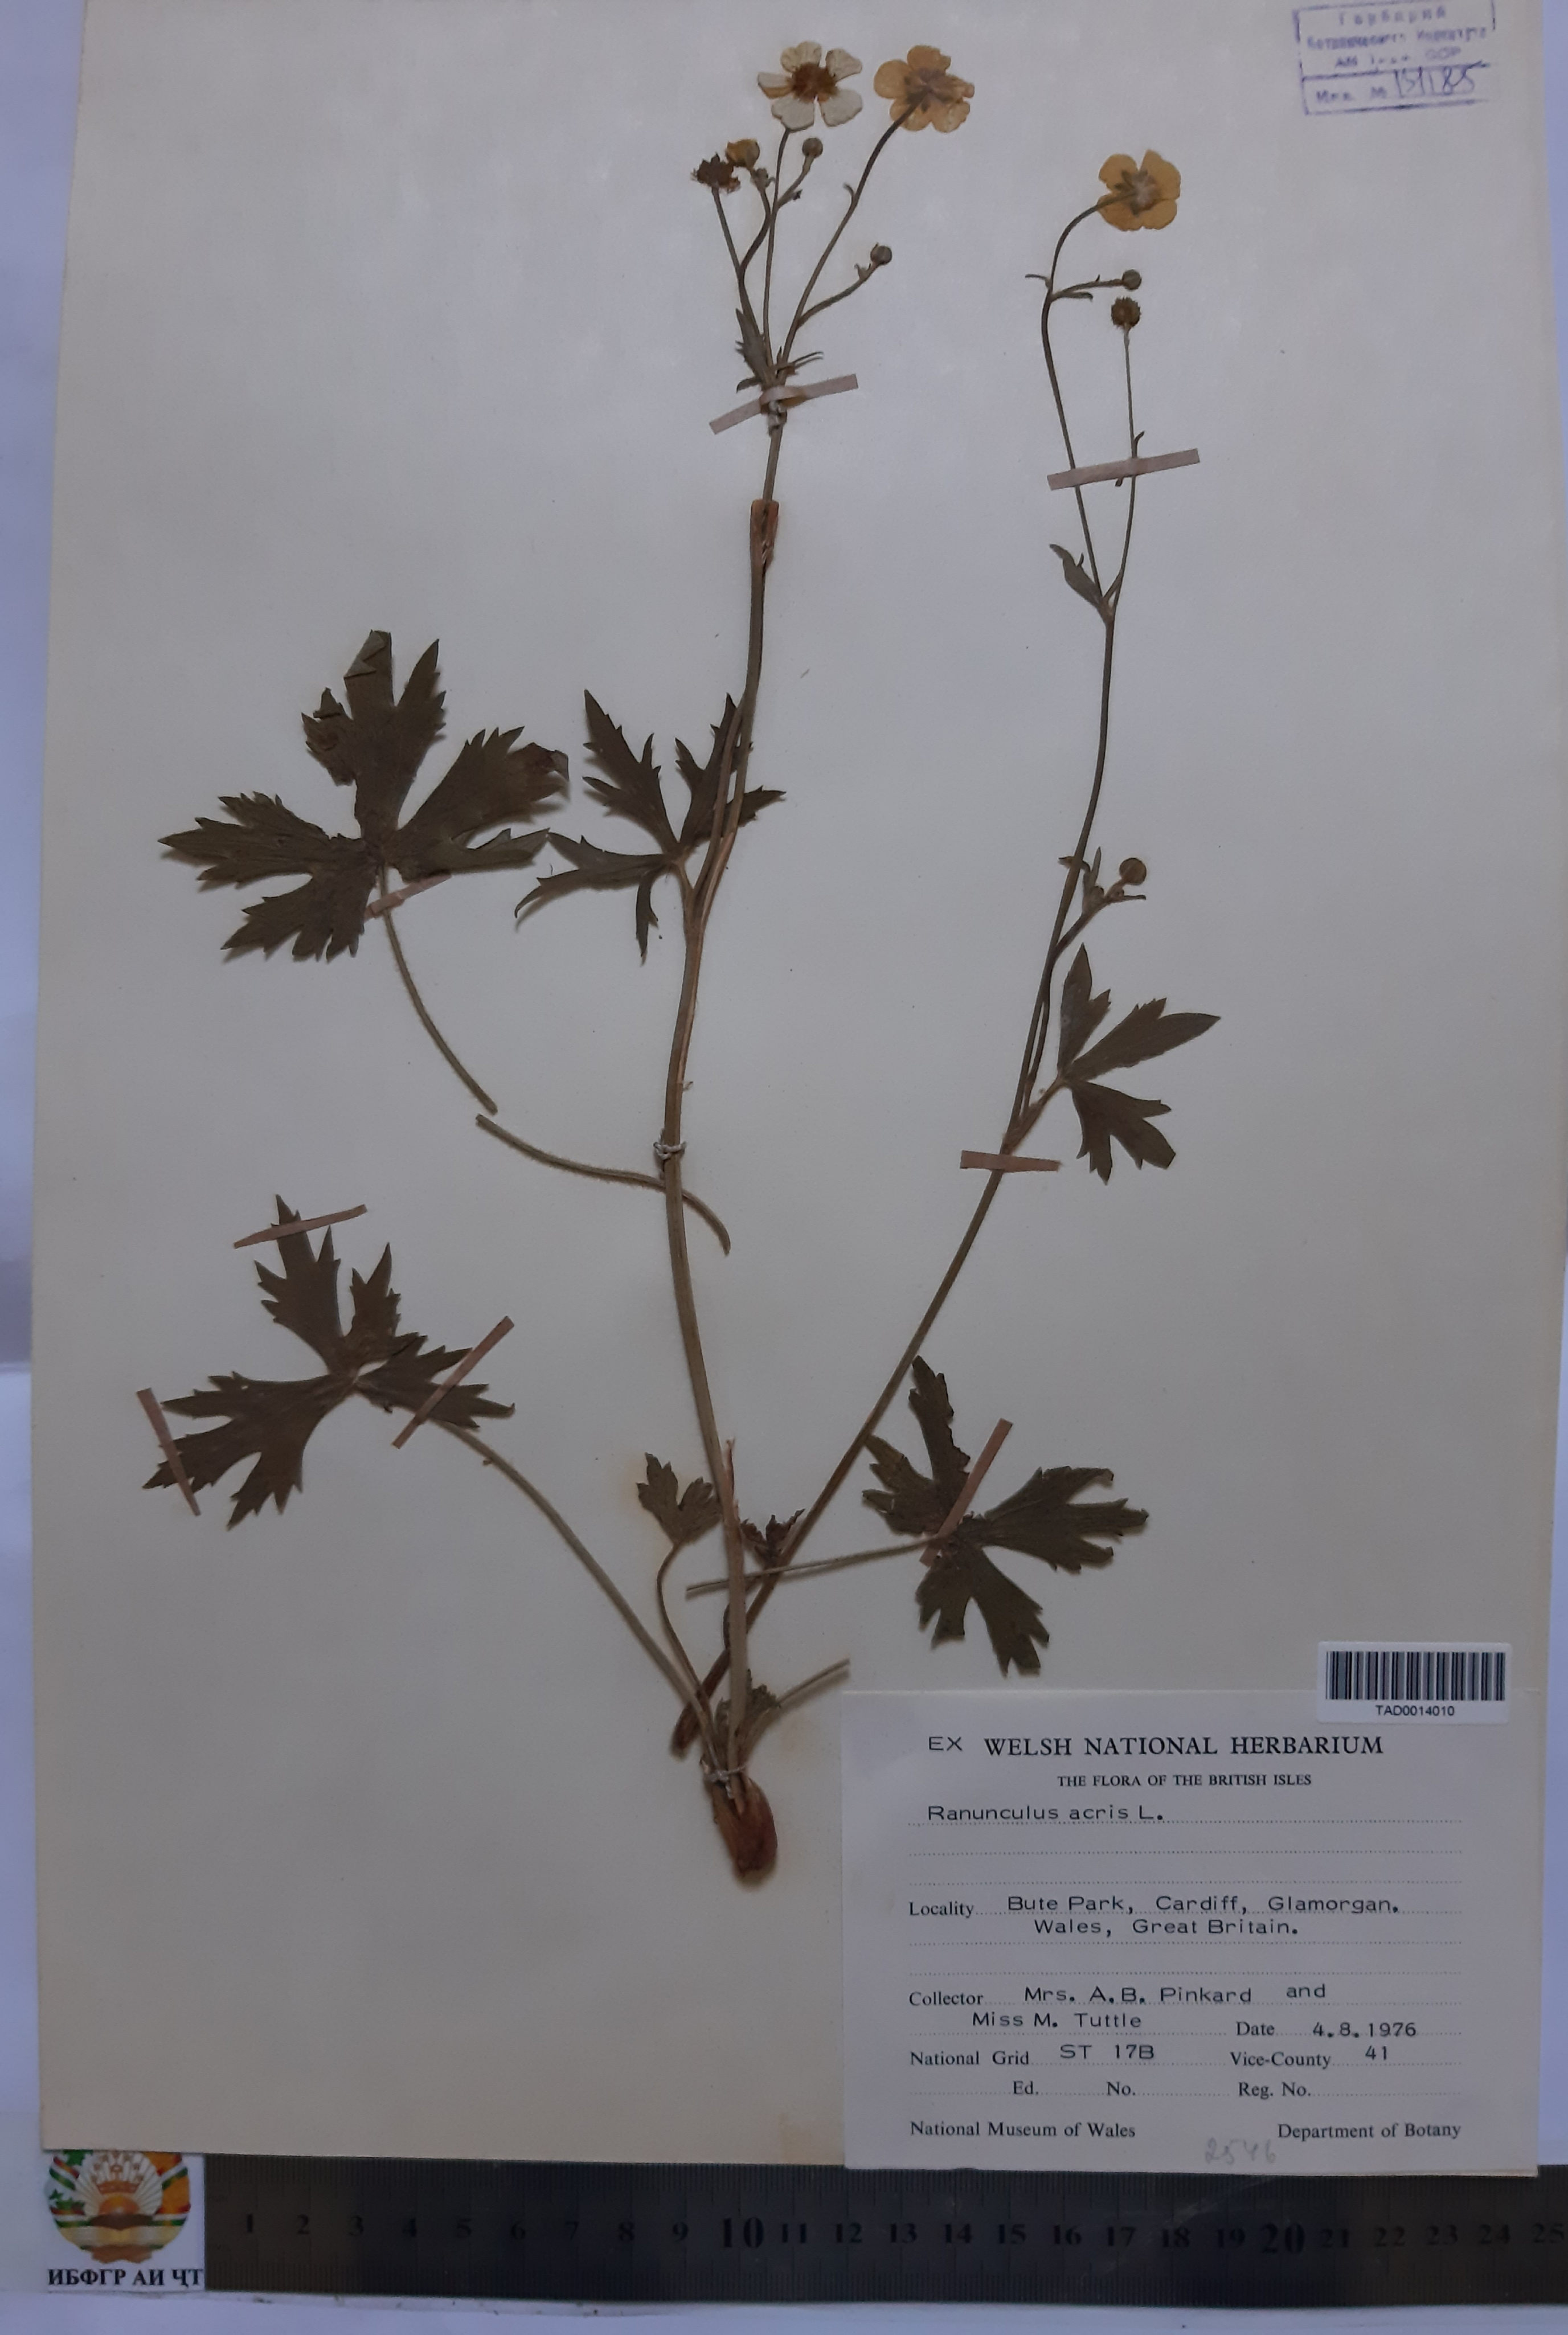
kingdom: Plantae
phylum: Tracheophyta
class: Magnoliopsida
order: Ranunculales
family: Ranunculaceae
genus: Ranunculus
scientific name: Ranunculus acris
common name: Meadow buttercup
